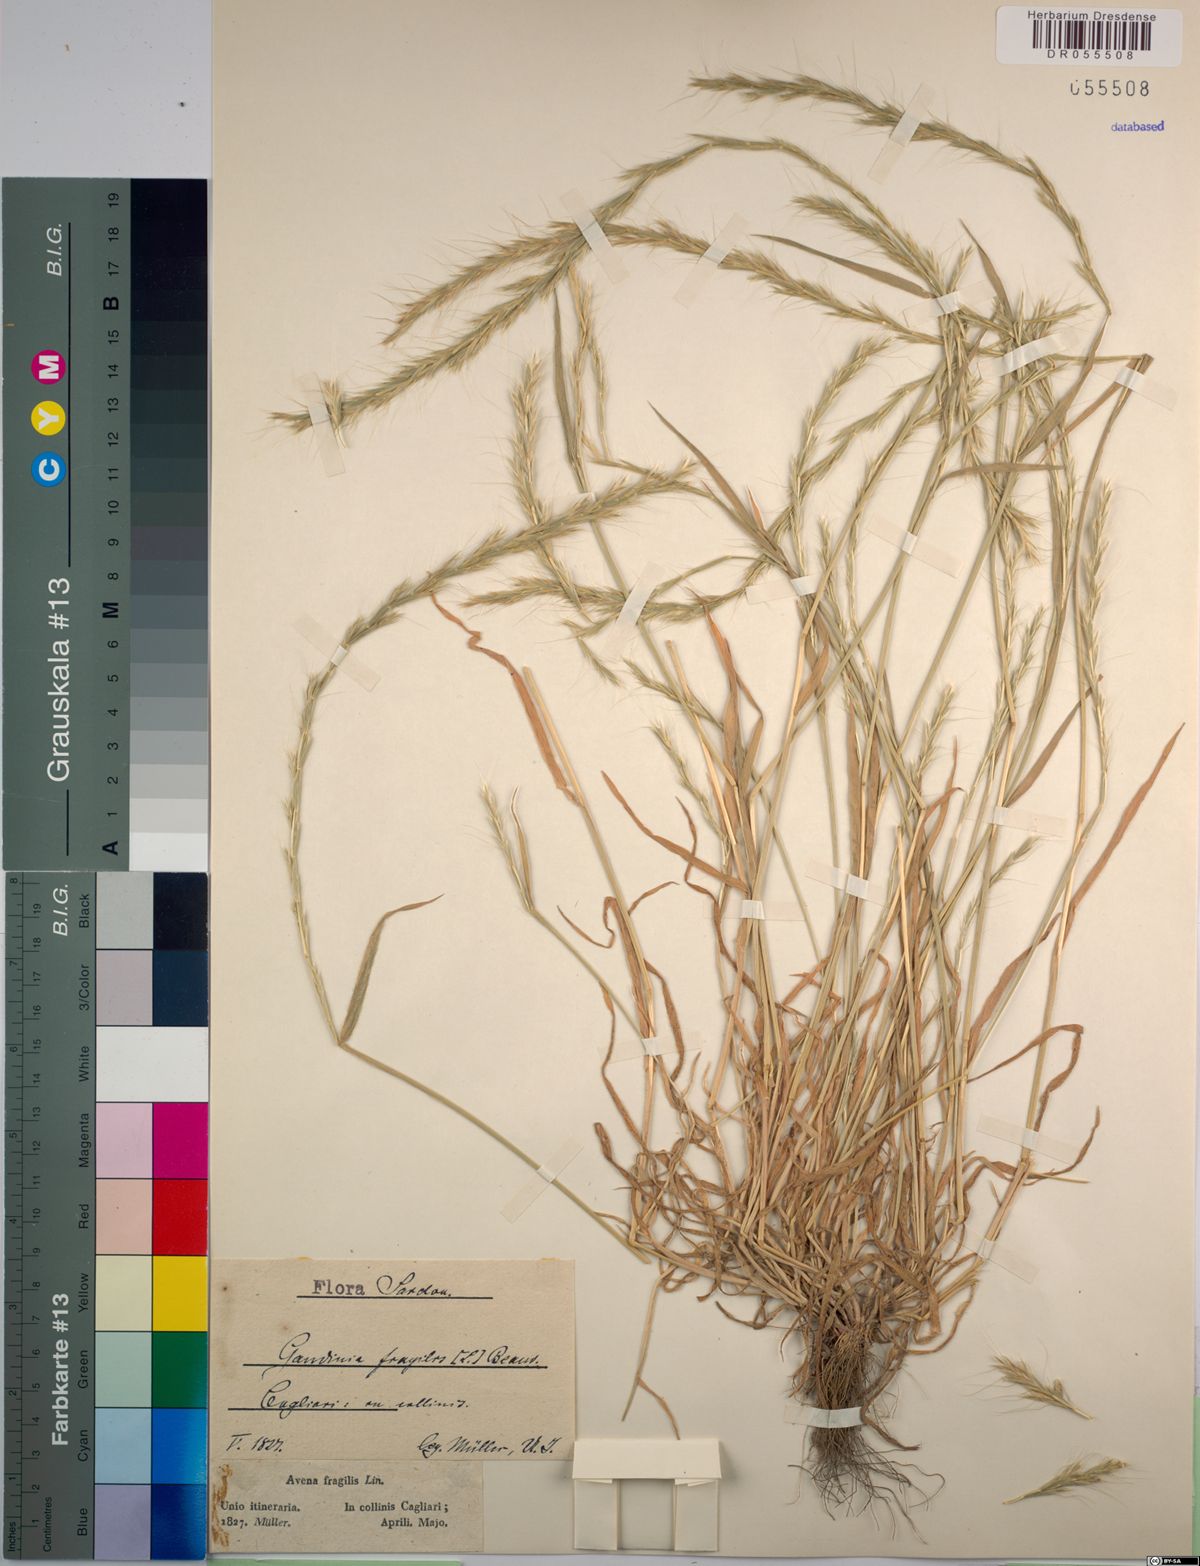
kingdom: Plantae
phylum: Tracheophyta
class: Liliopsida
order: Poales
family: Poaceae
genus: Gaudinia
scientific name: Gaudinia fragilis
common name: French oat-grass
